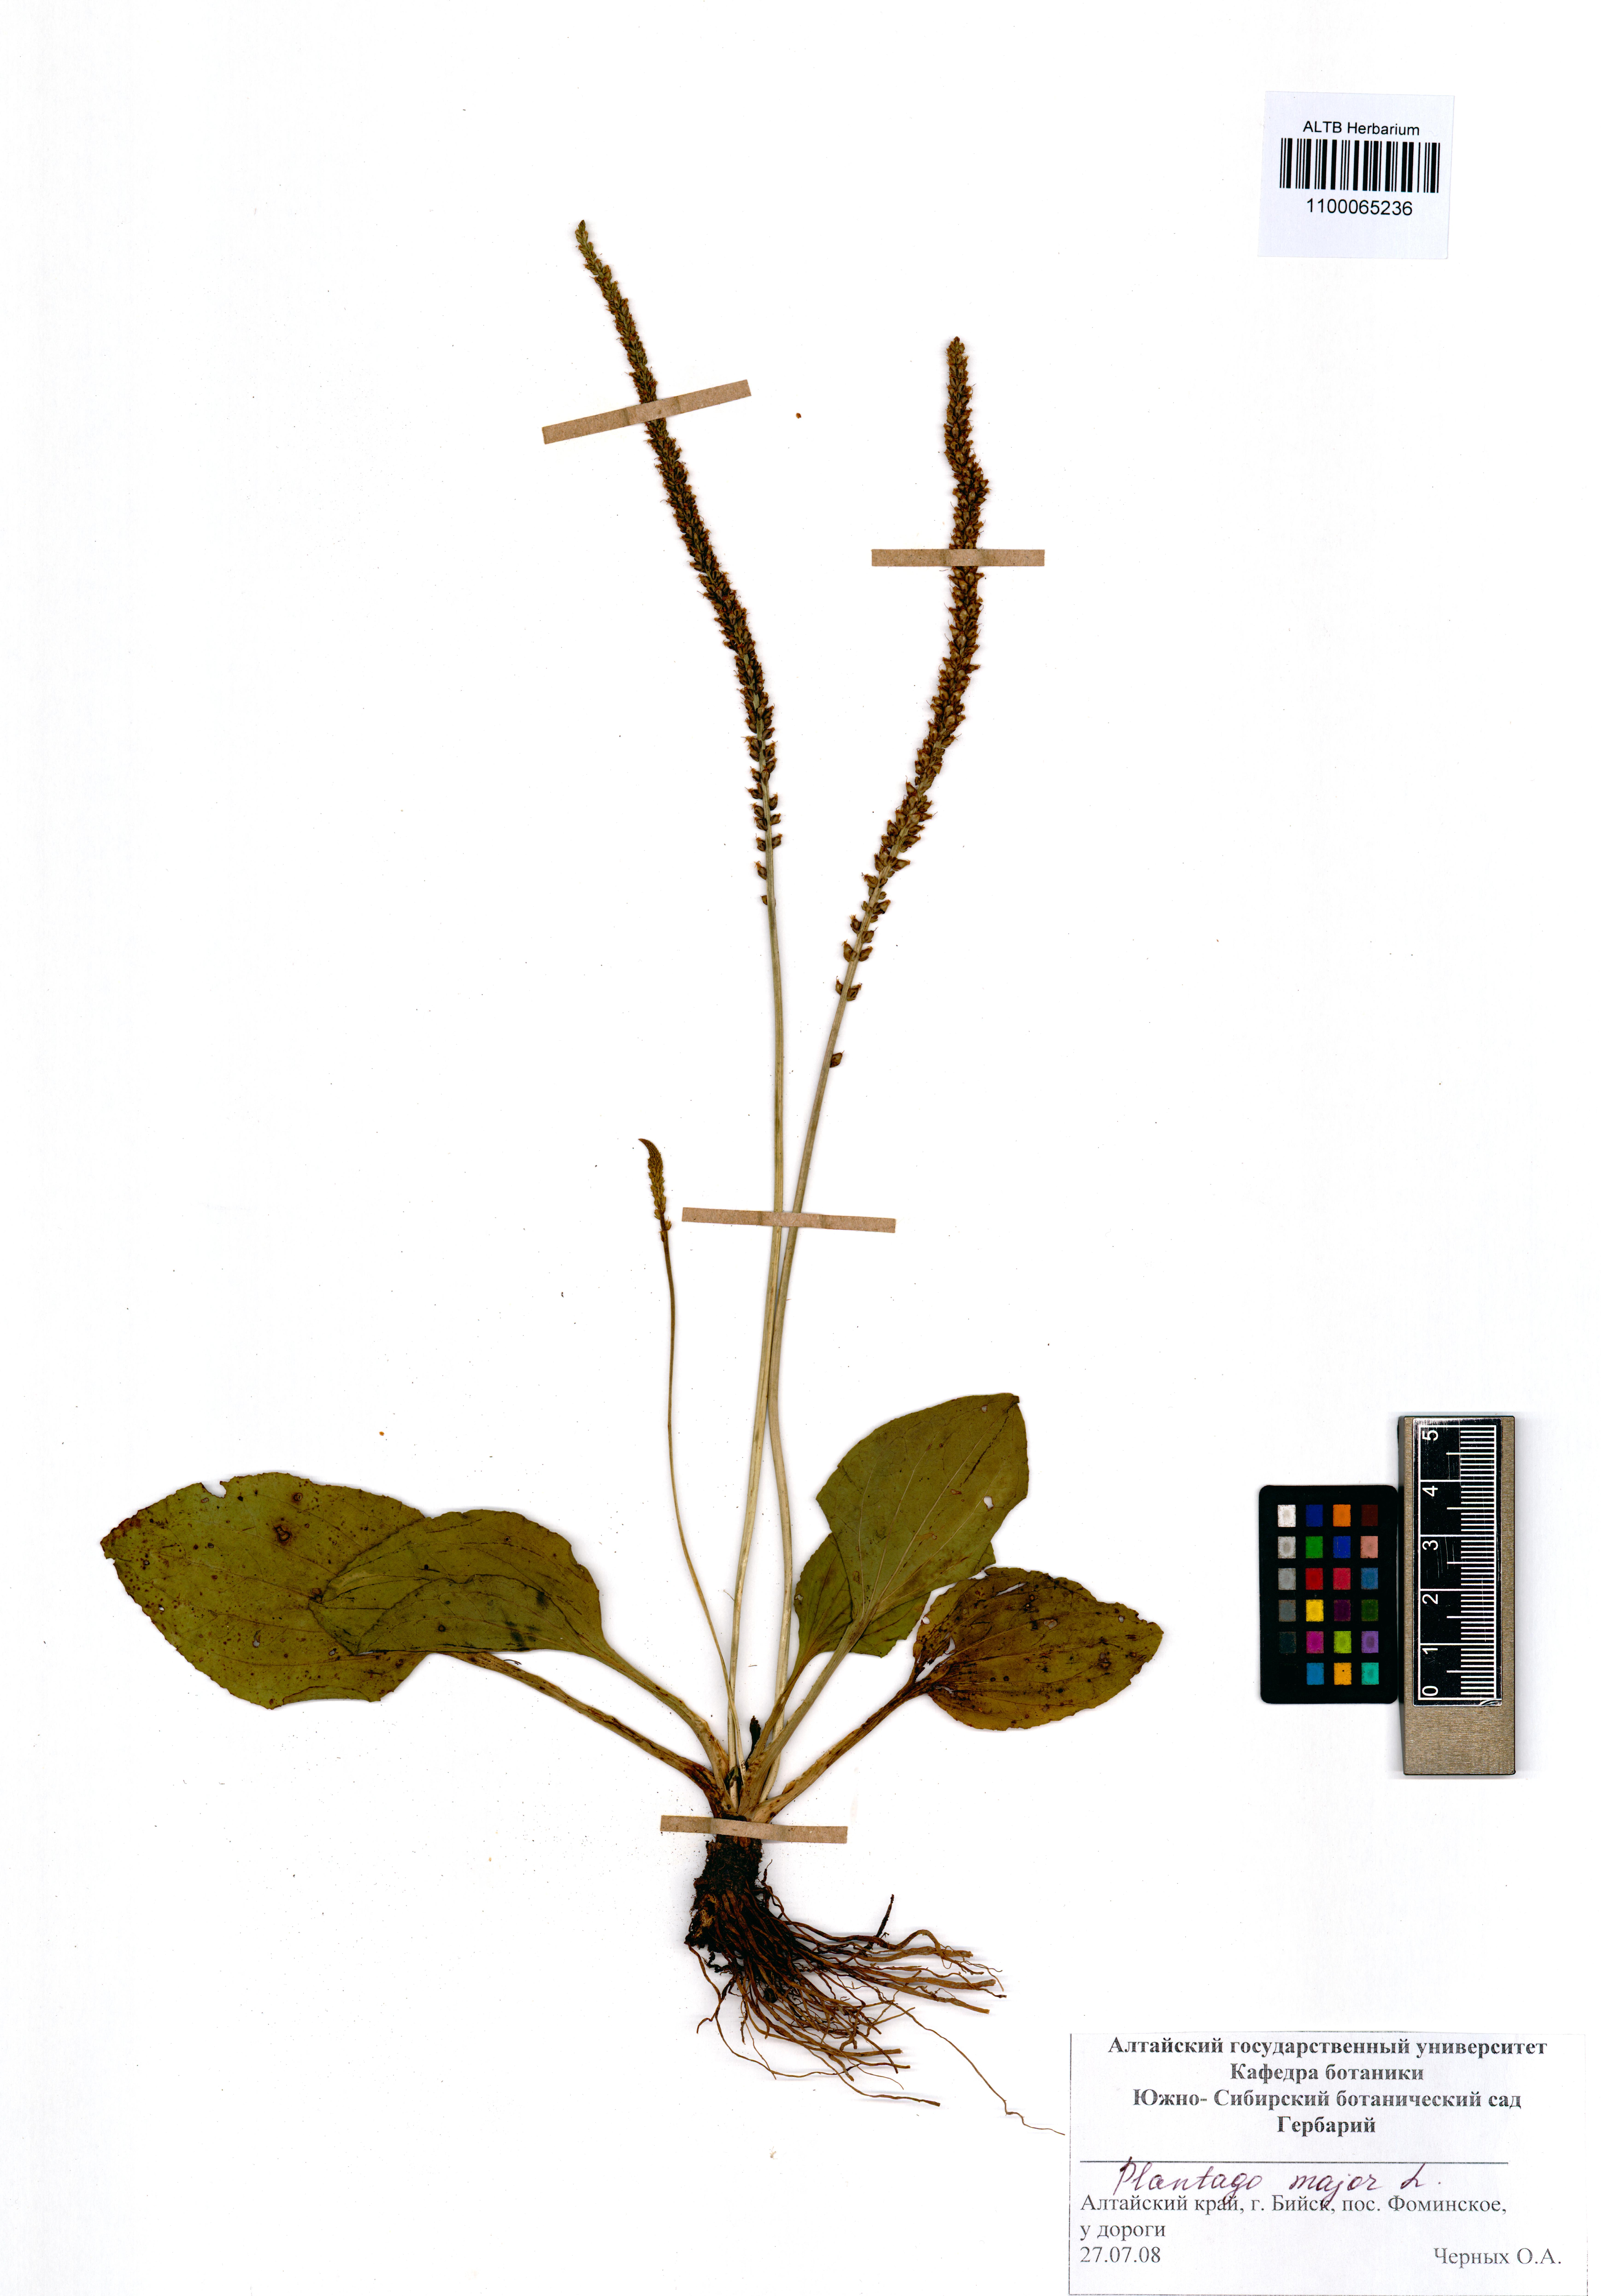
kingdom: Plantae
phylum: Tracheophyta
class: Magnoliopsida
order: Lamiales
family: Plantaginaceae
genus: Plantago
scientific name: Plantago major
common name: Common plantain
